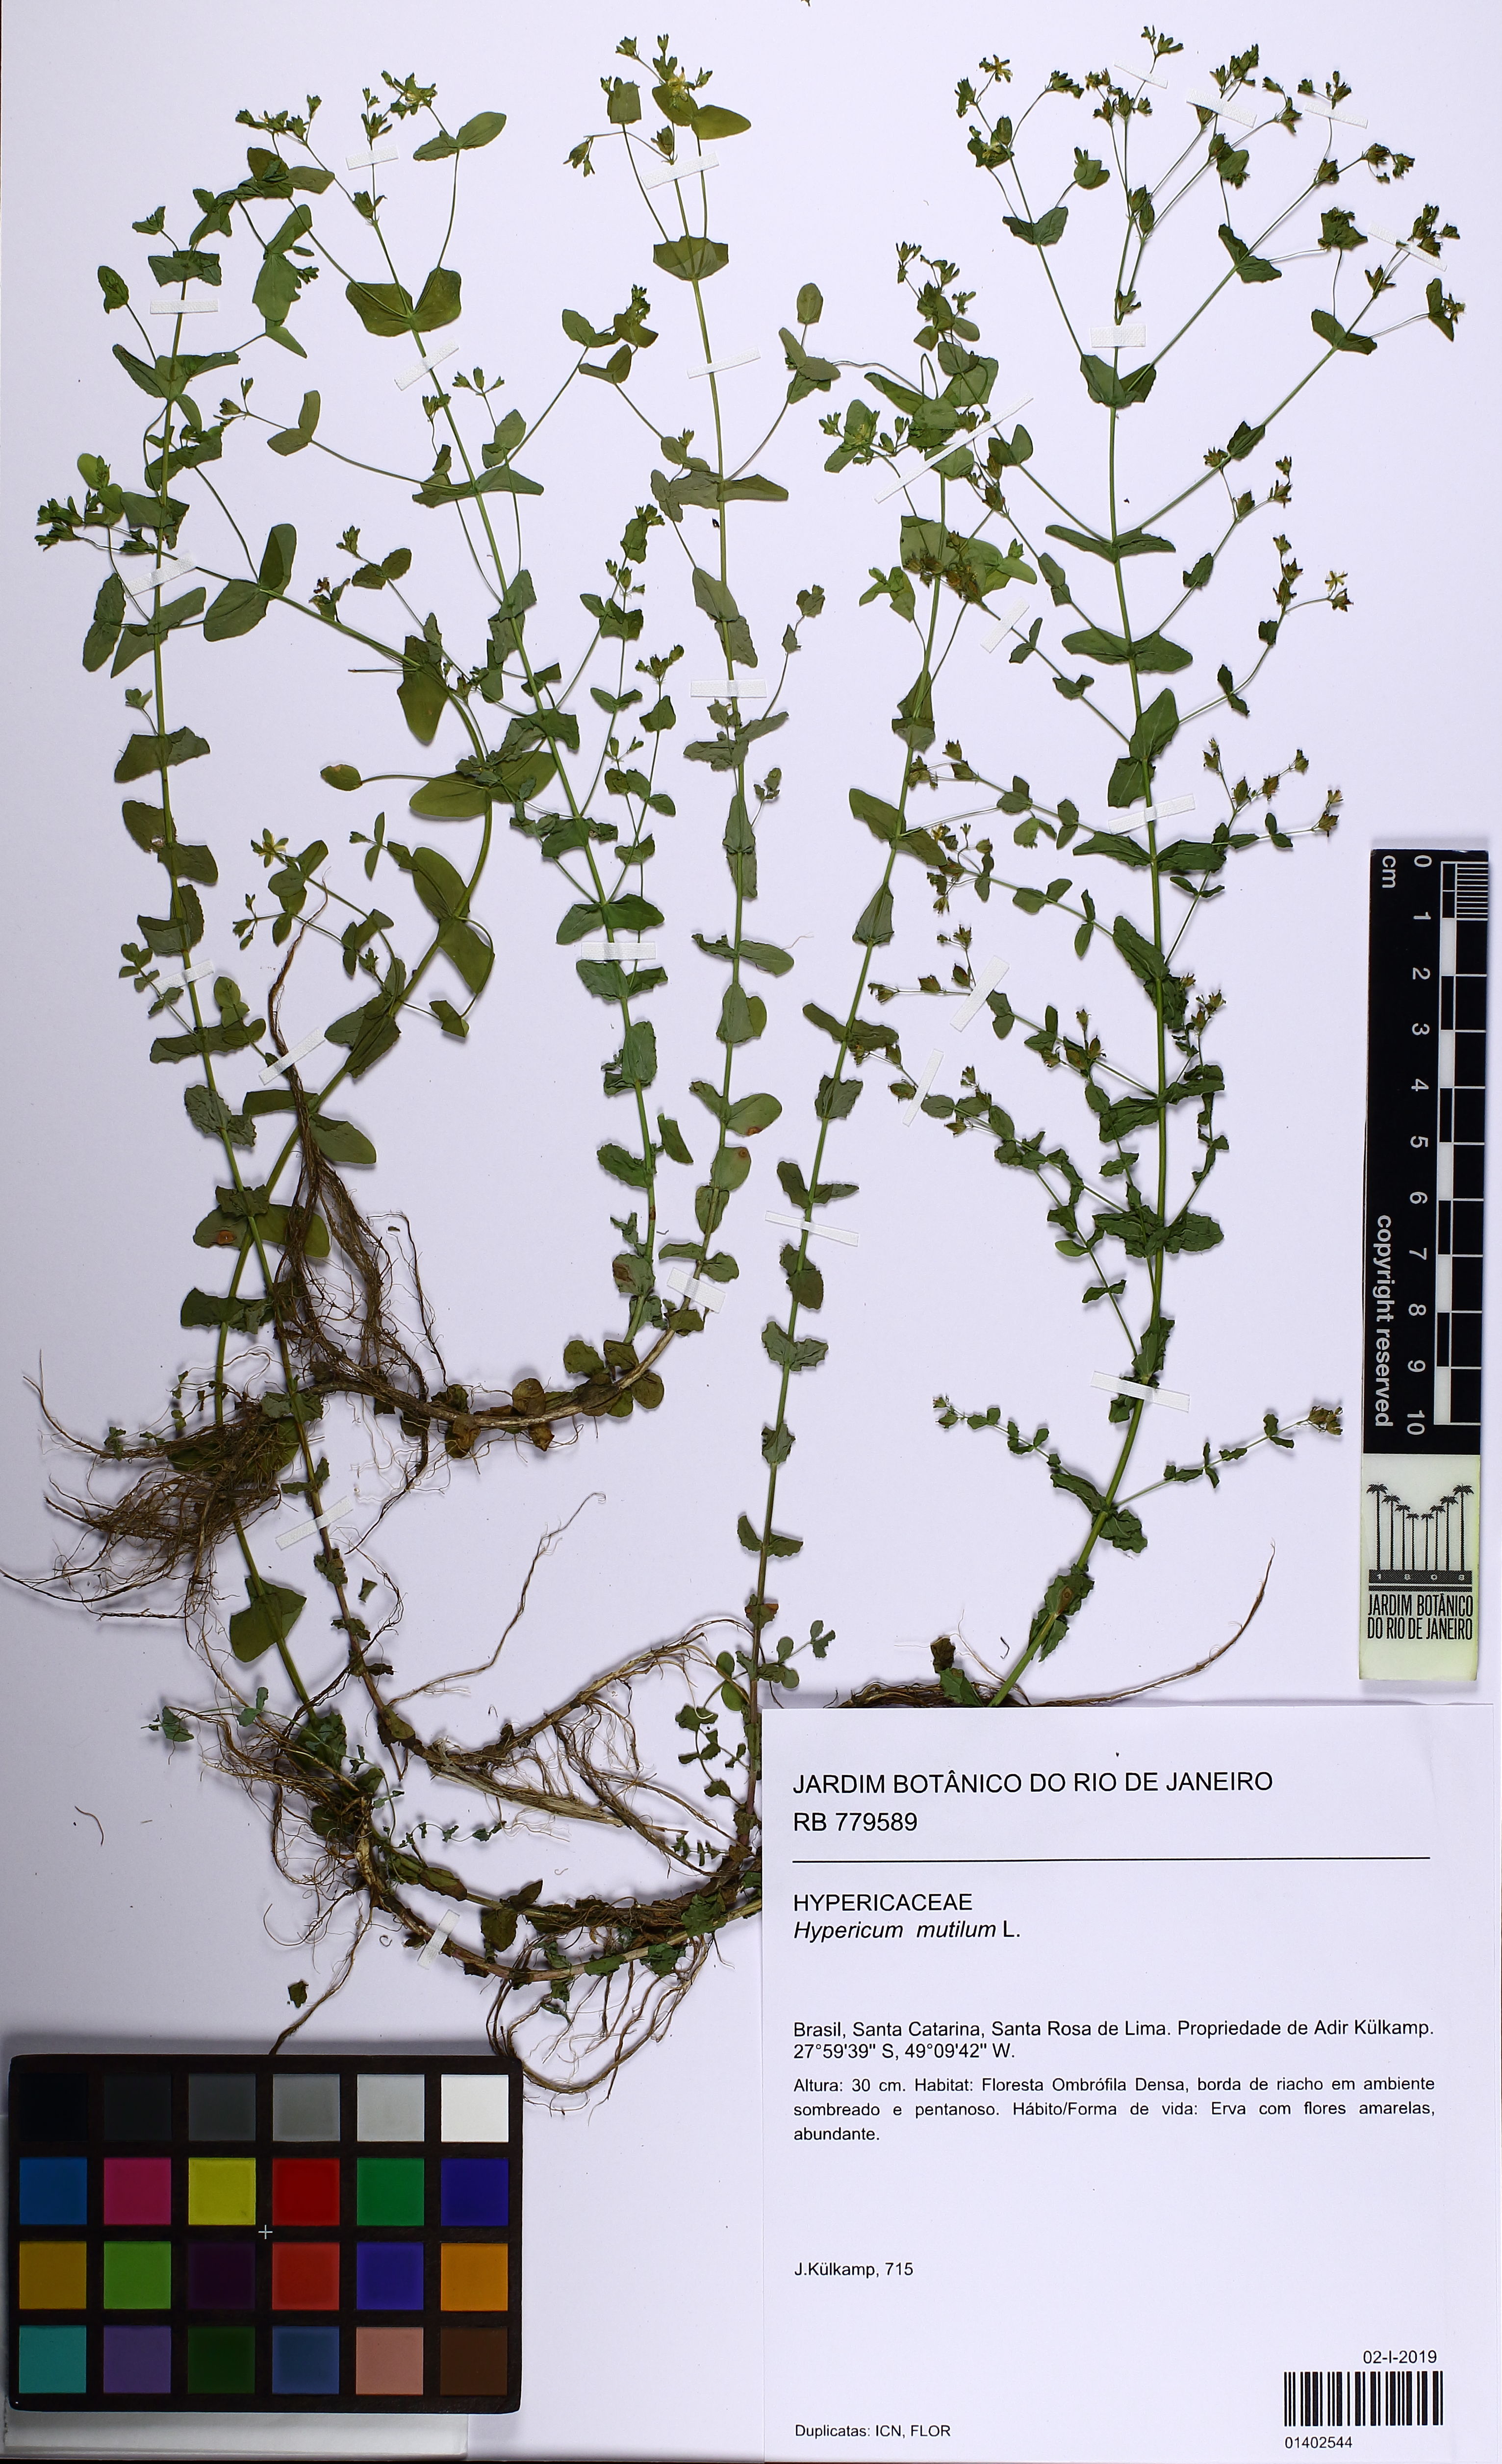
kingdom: Plantae
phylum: Tracheophyta
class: Magnoliopsida
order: Malpighiales
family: Hypericaceae
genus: Hypericum
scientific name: Hypericum mutilum
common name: Dwarf st. john's-wort
